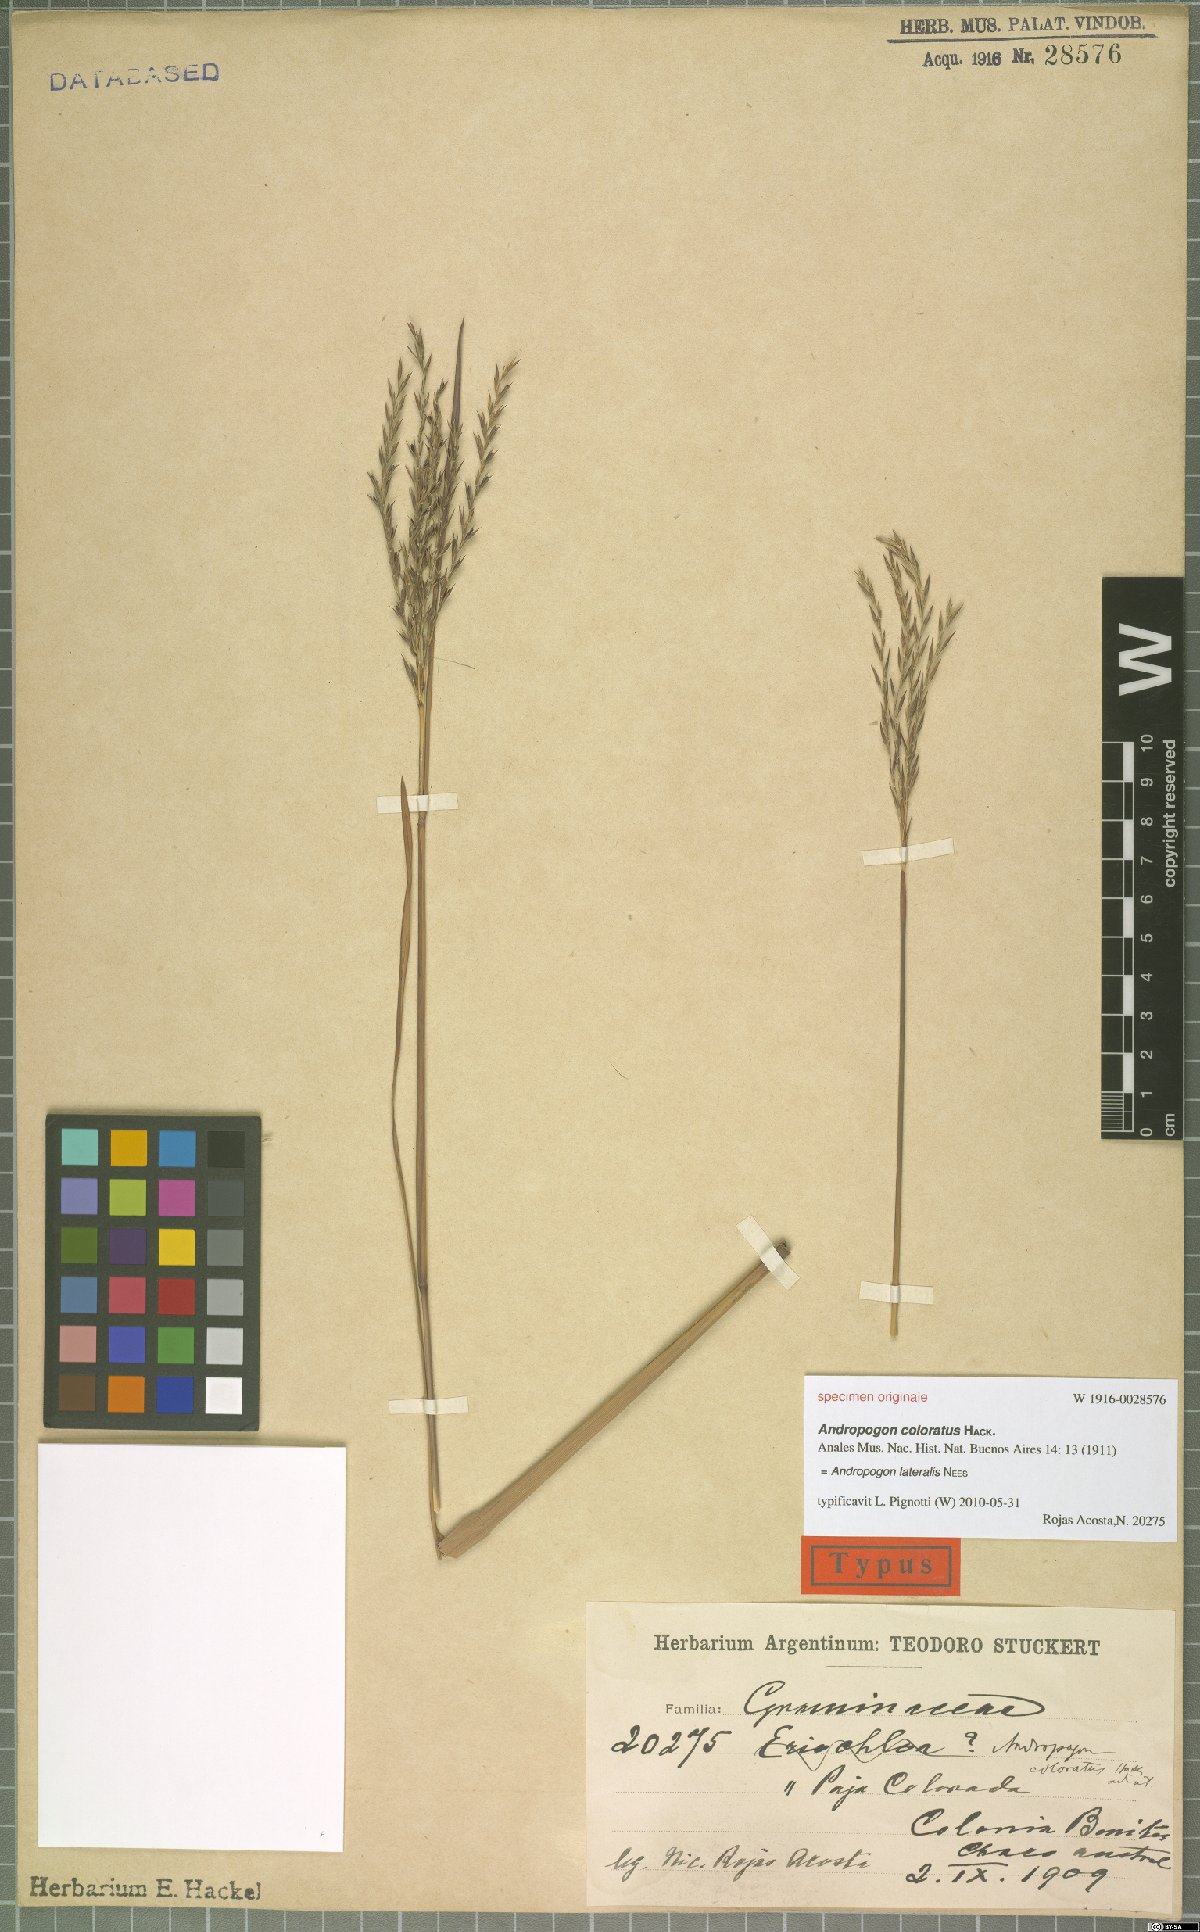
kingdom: Plantae
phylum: Tracheophyta
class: Liliopsida
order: Poales
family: Poaceae
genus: Andropogon
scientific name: Andropogon lateralis
